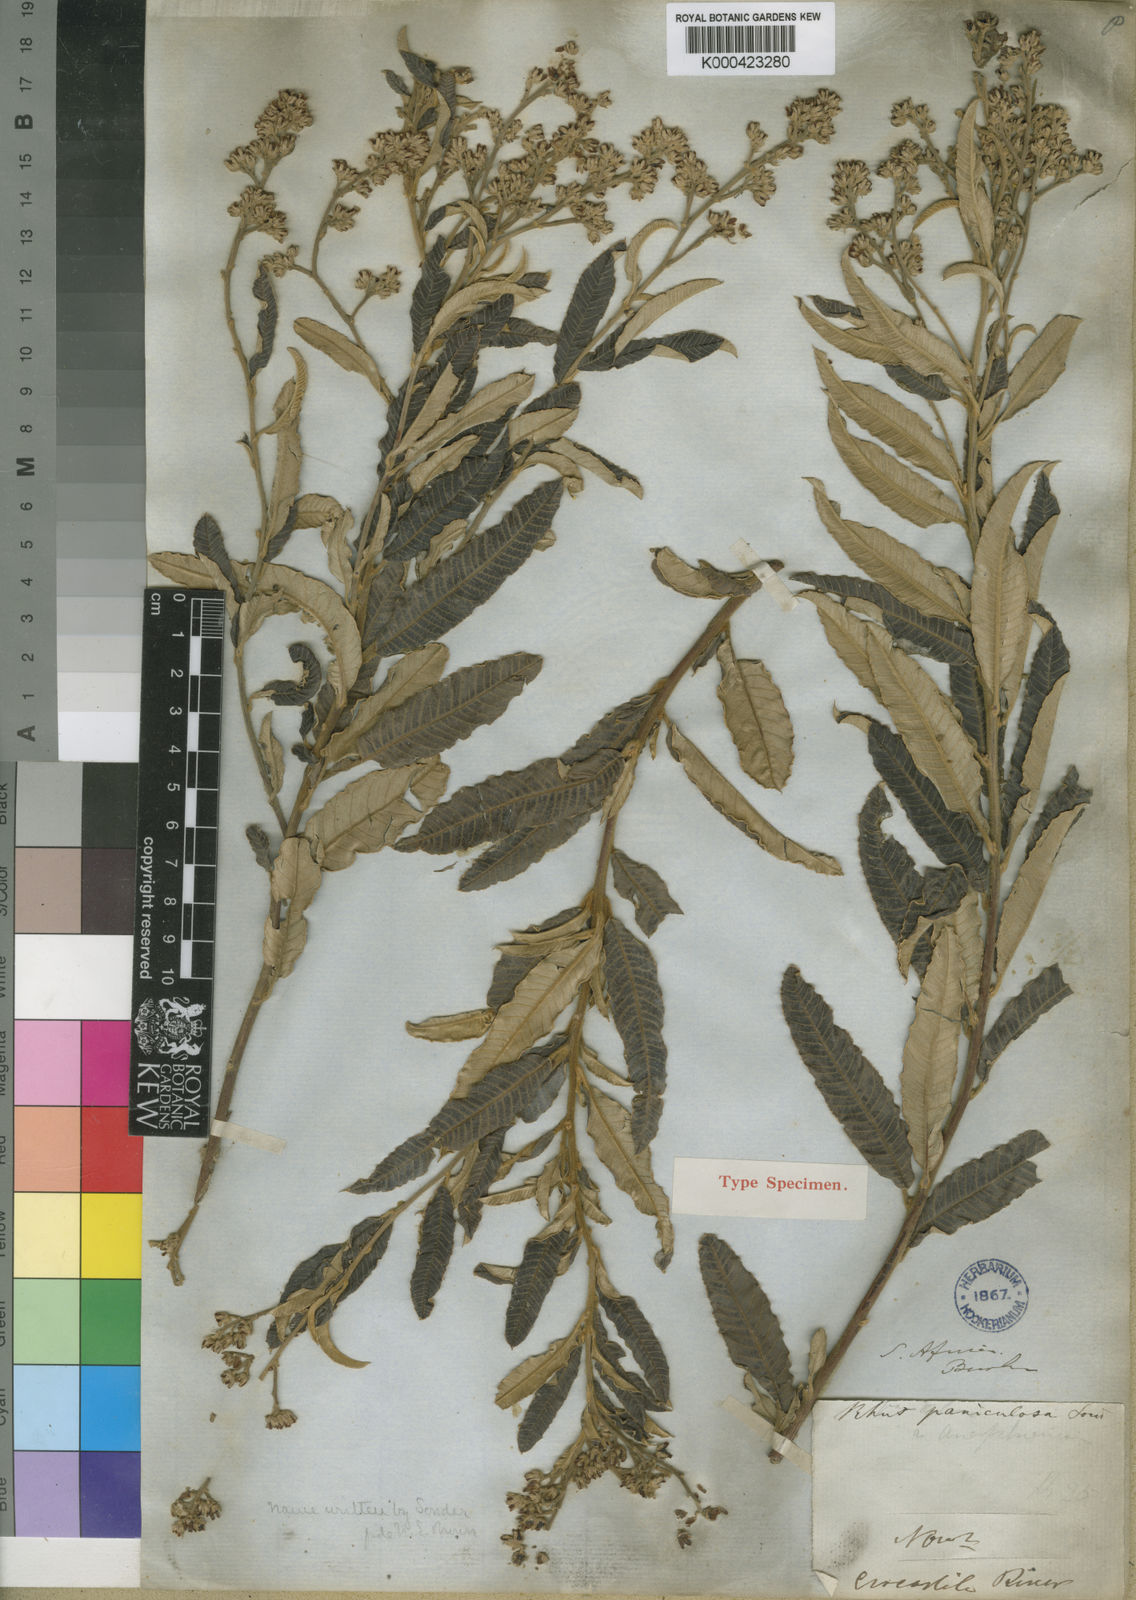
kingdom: Plantae
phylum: Tracheophyta
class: Magnoliopsida
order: Sapindales
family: Anacardiaceae
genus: Ozoroa
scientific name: Ozoroa paniculosa
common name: Bushveld ozoroa
